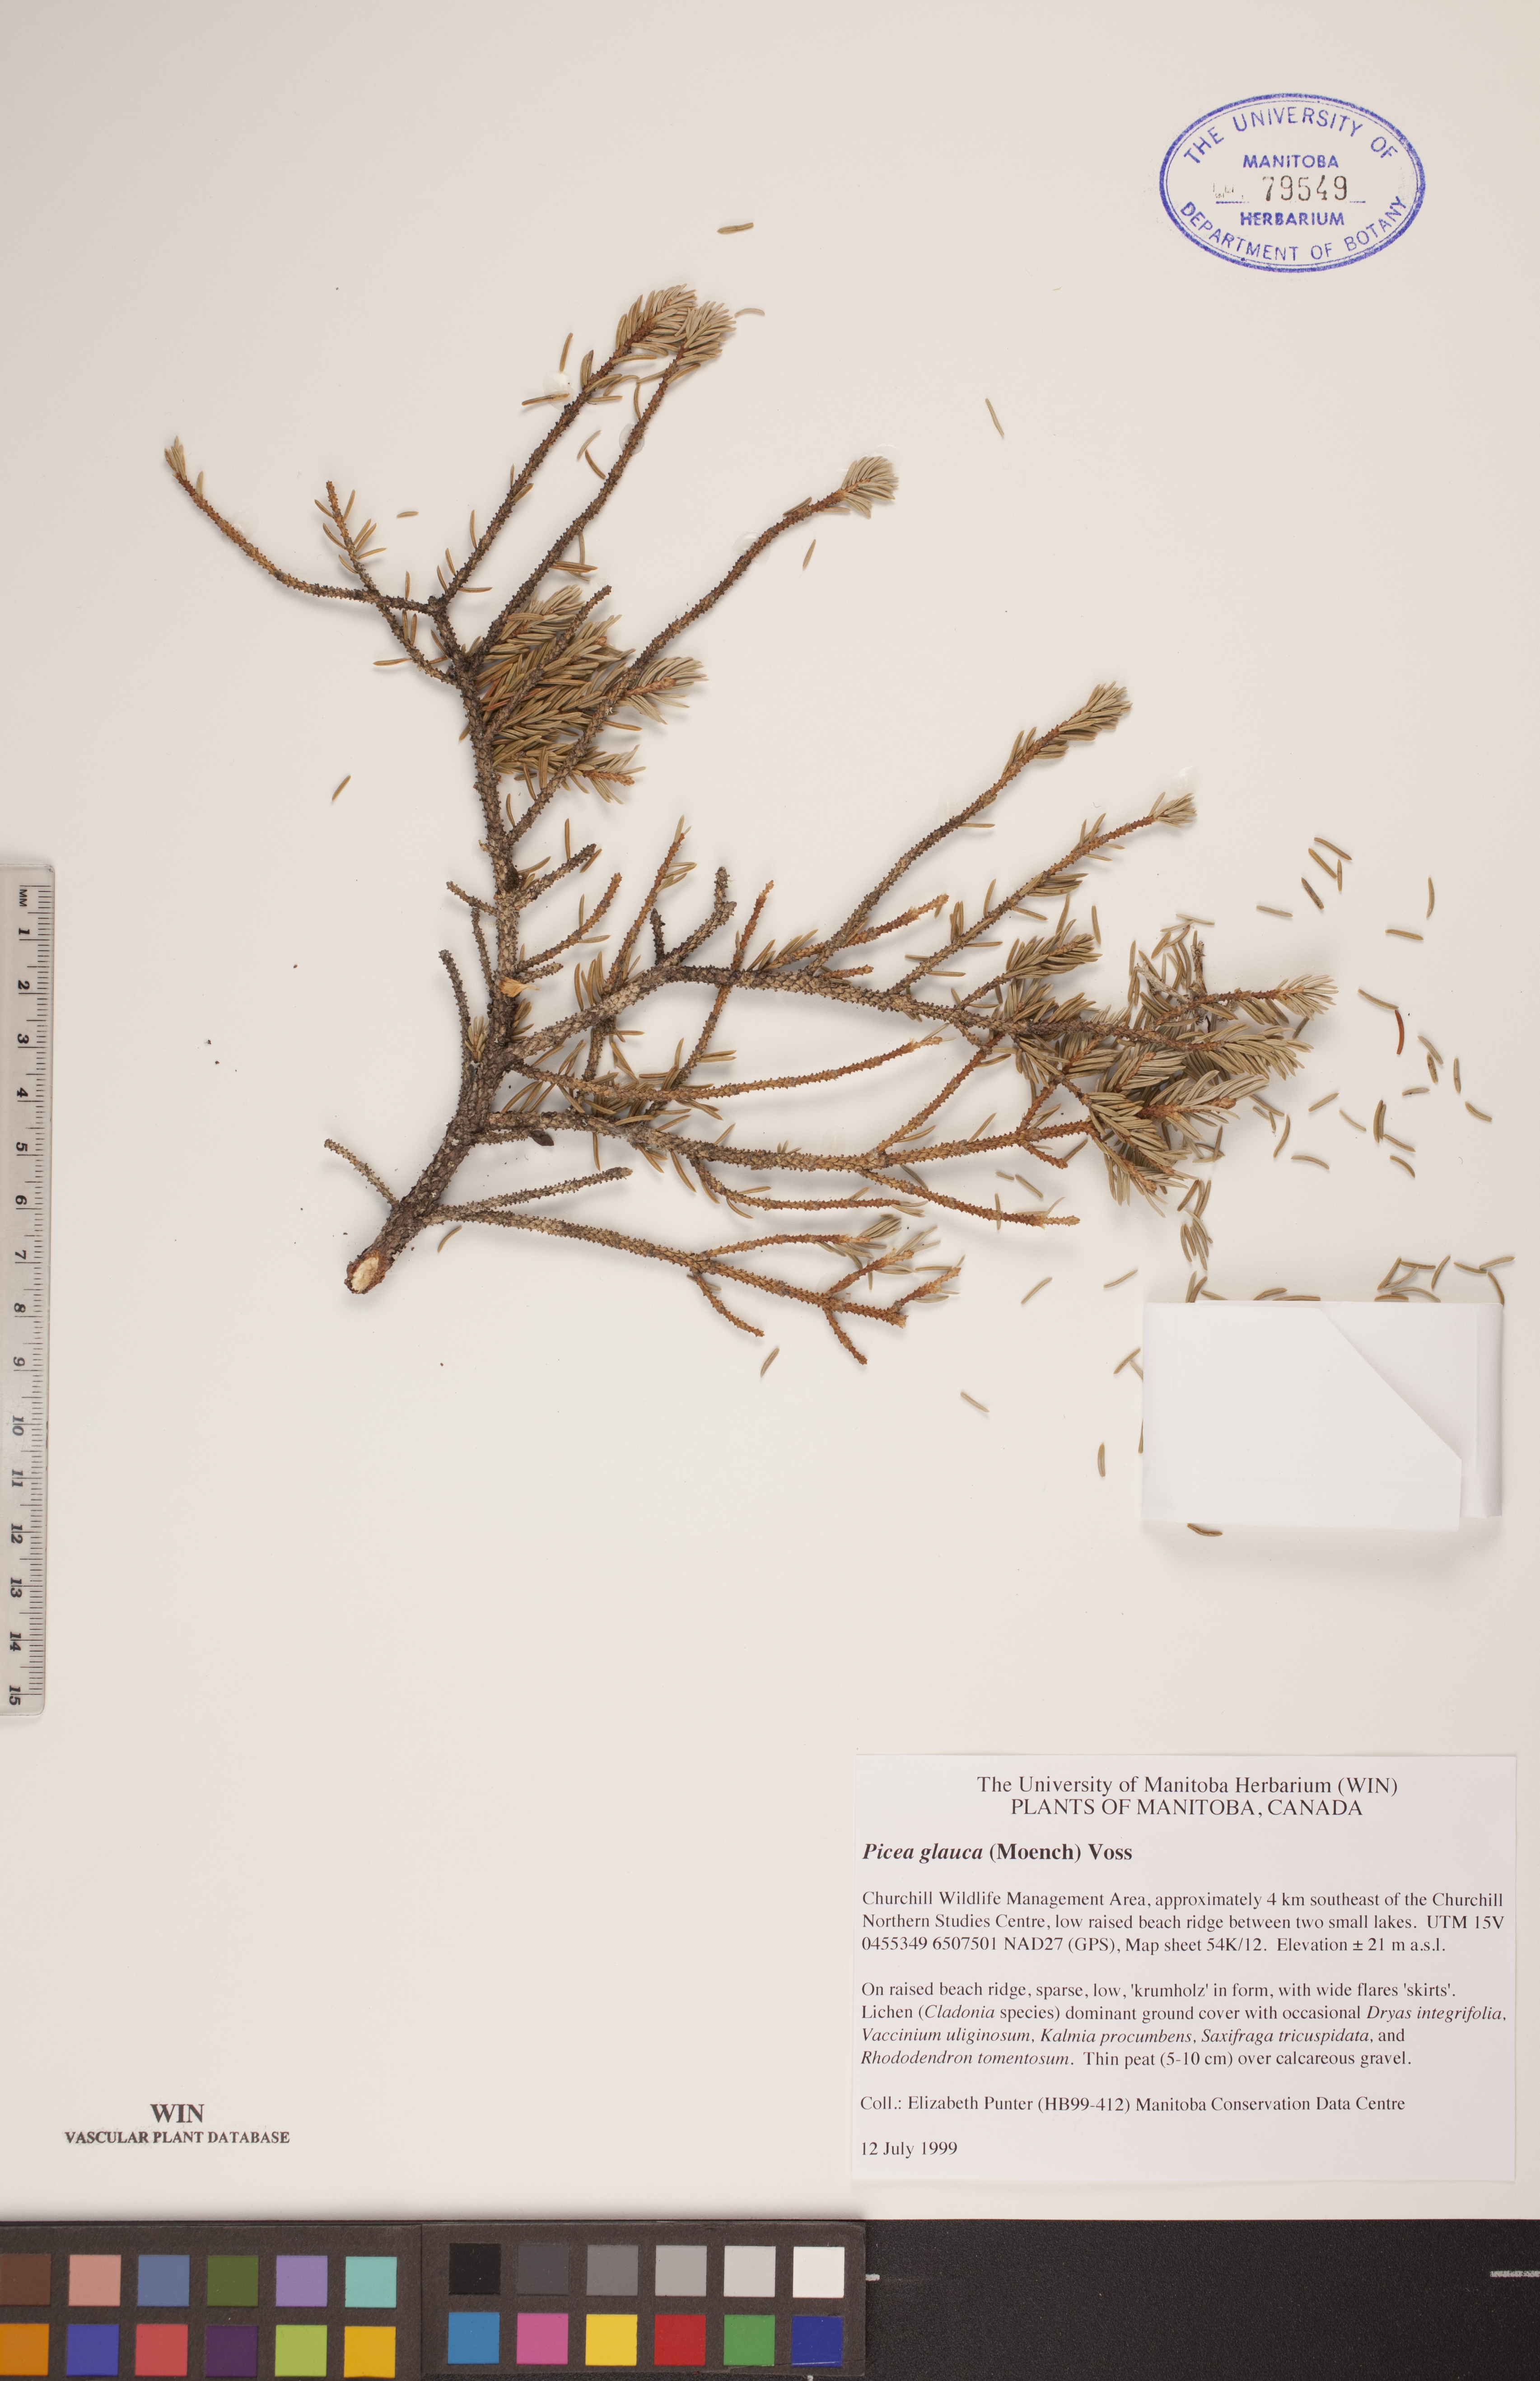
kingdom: Plantae
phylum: Tracheophyta
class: Pinopsida
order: Pinales
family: Pinaceae
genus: Picea
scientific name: Picea glauca
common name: White spruce
